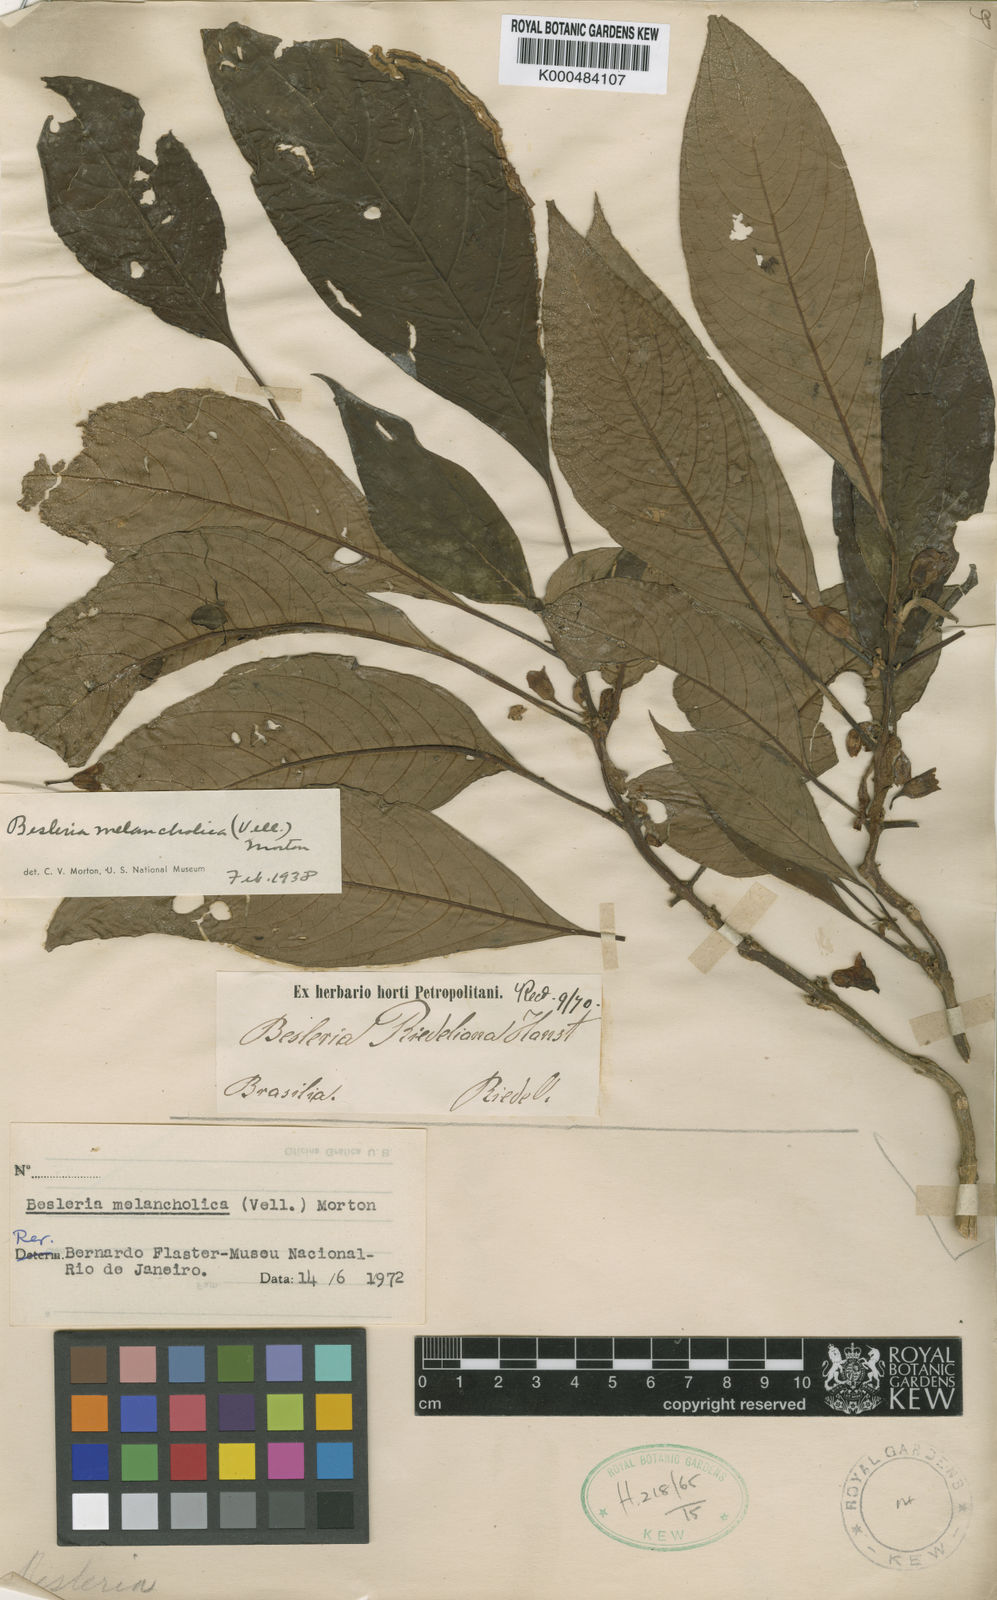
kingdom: Plantae
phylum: Tracheophyta
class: Magnoliopsida
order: Lamiales
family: Gesneriaceae
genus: Besleria
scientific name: Besleria melancholica
